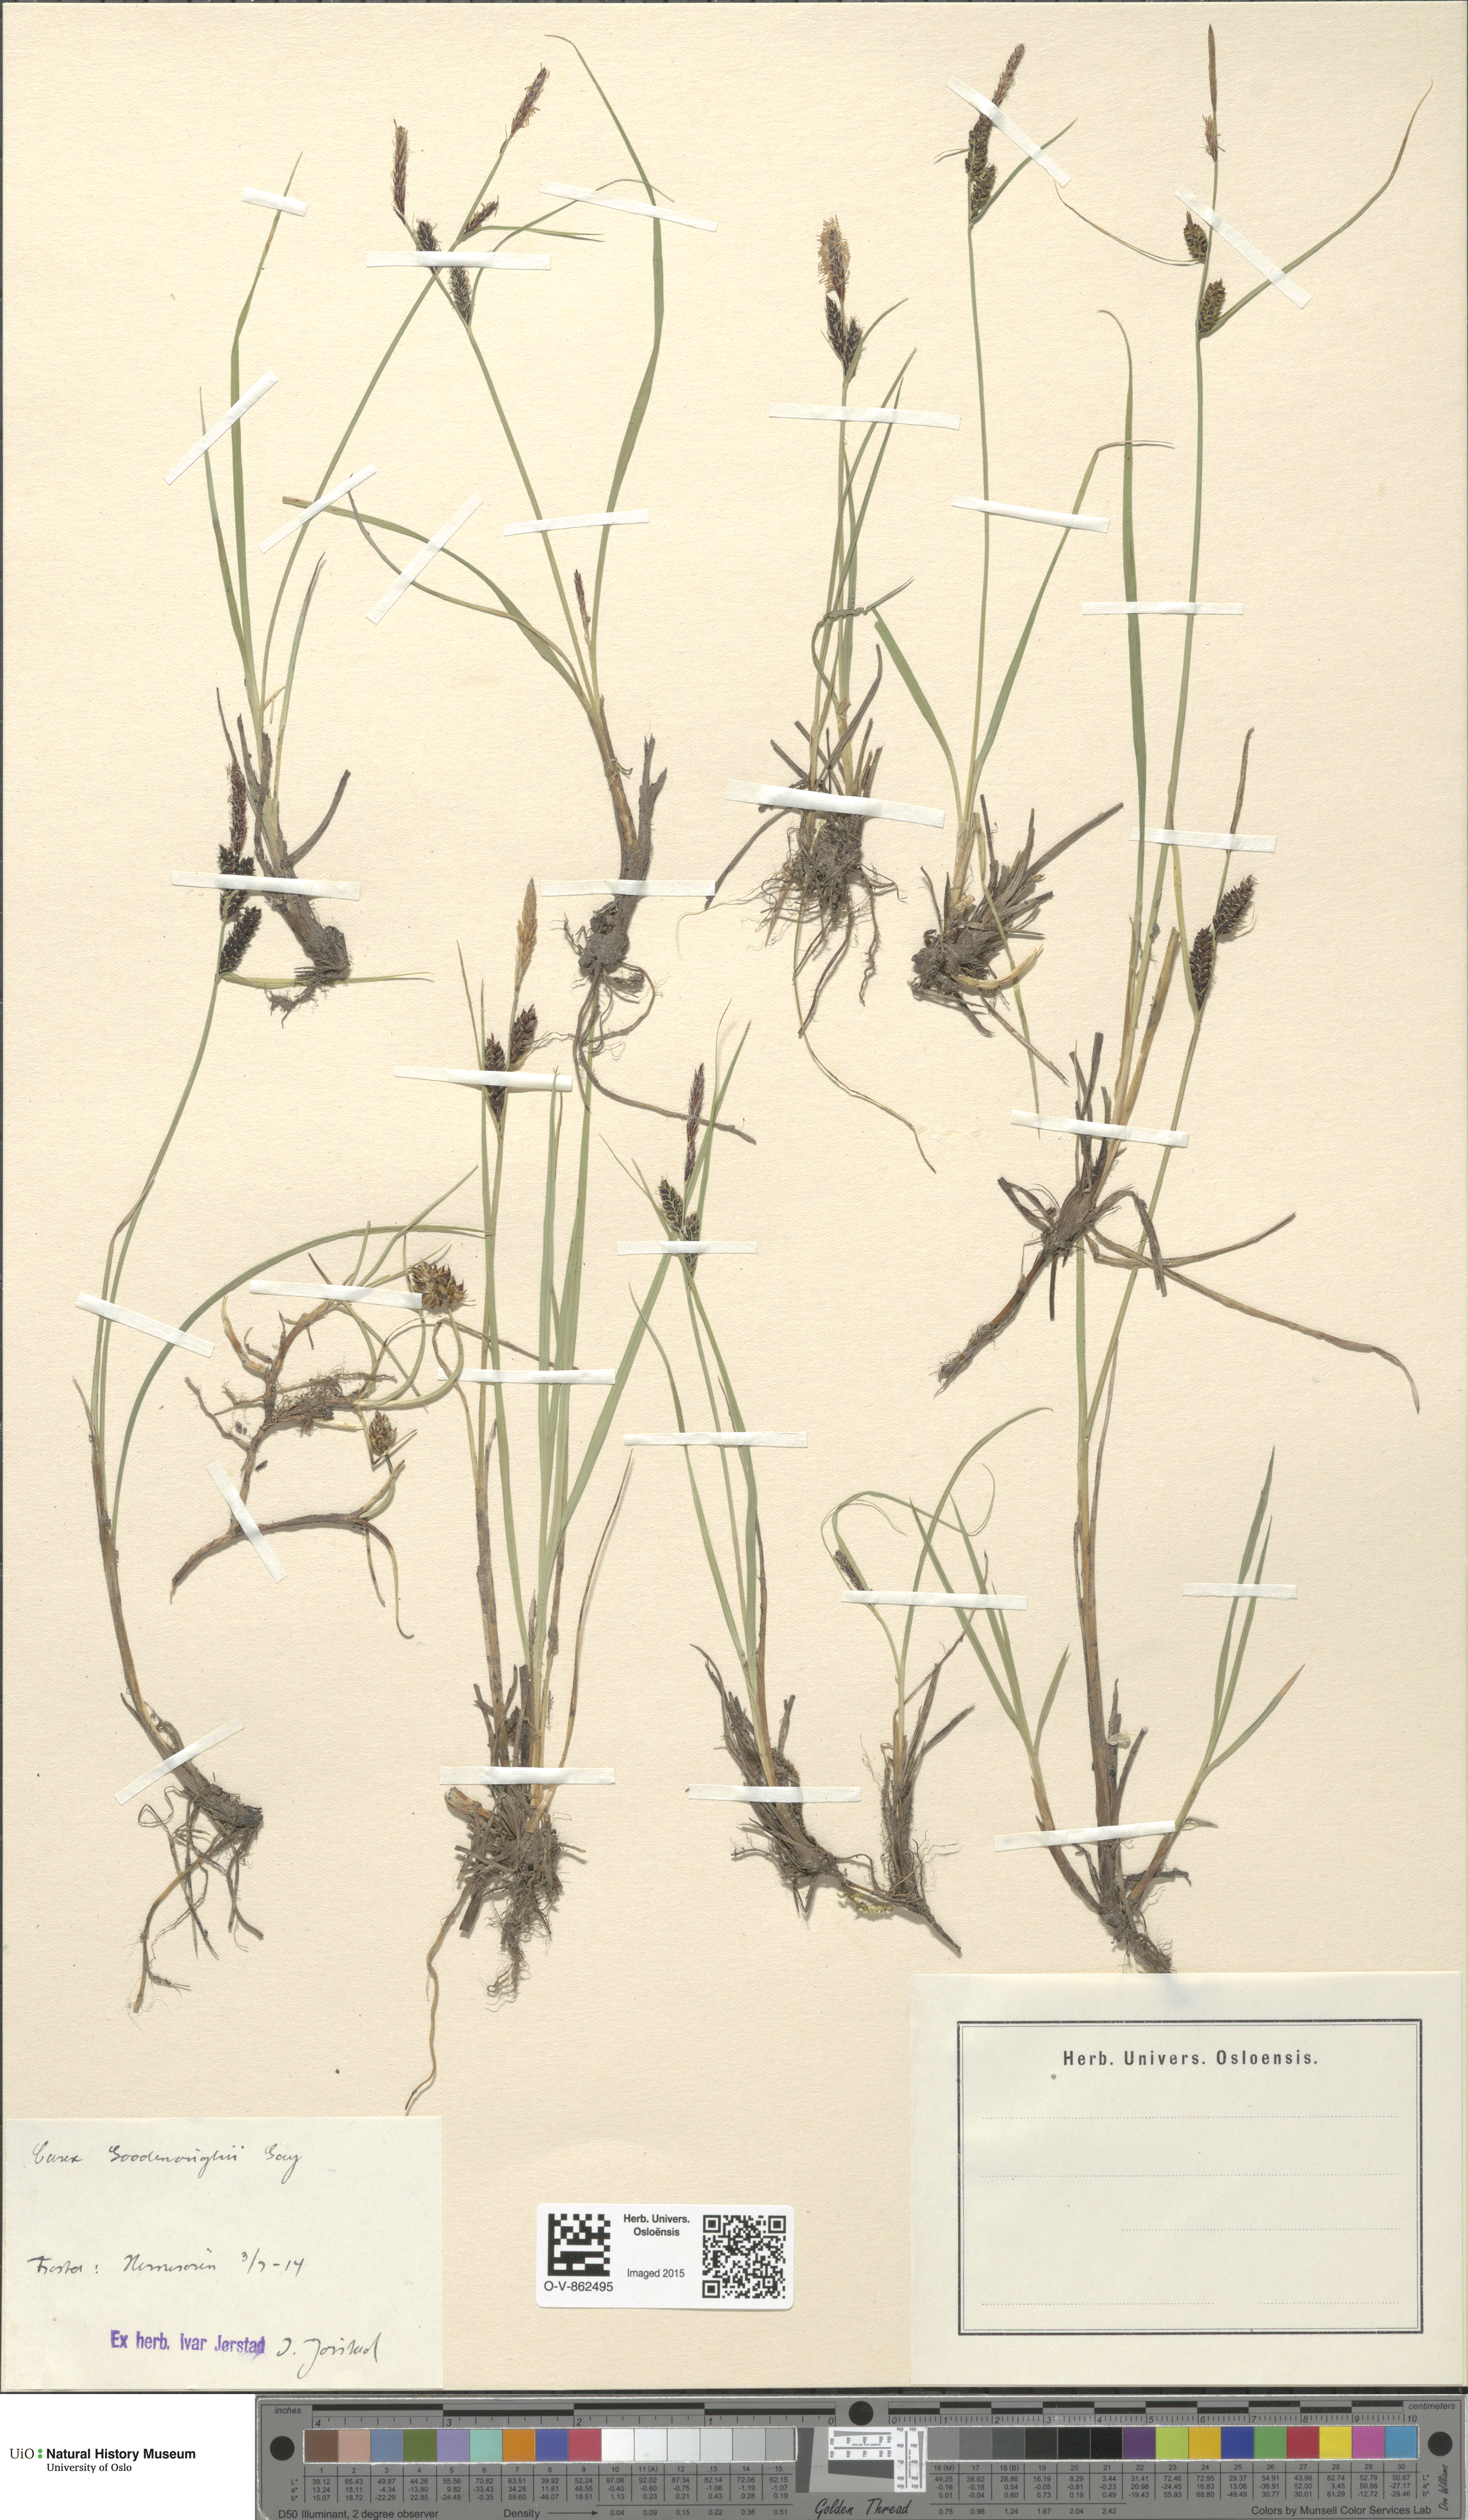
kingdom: Plantae
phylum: Tracheophyta
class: Liliopsida
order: Poales
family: Cyperaceae
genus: Carex
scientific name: Carex nigra
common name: Common sedge
